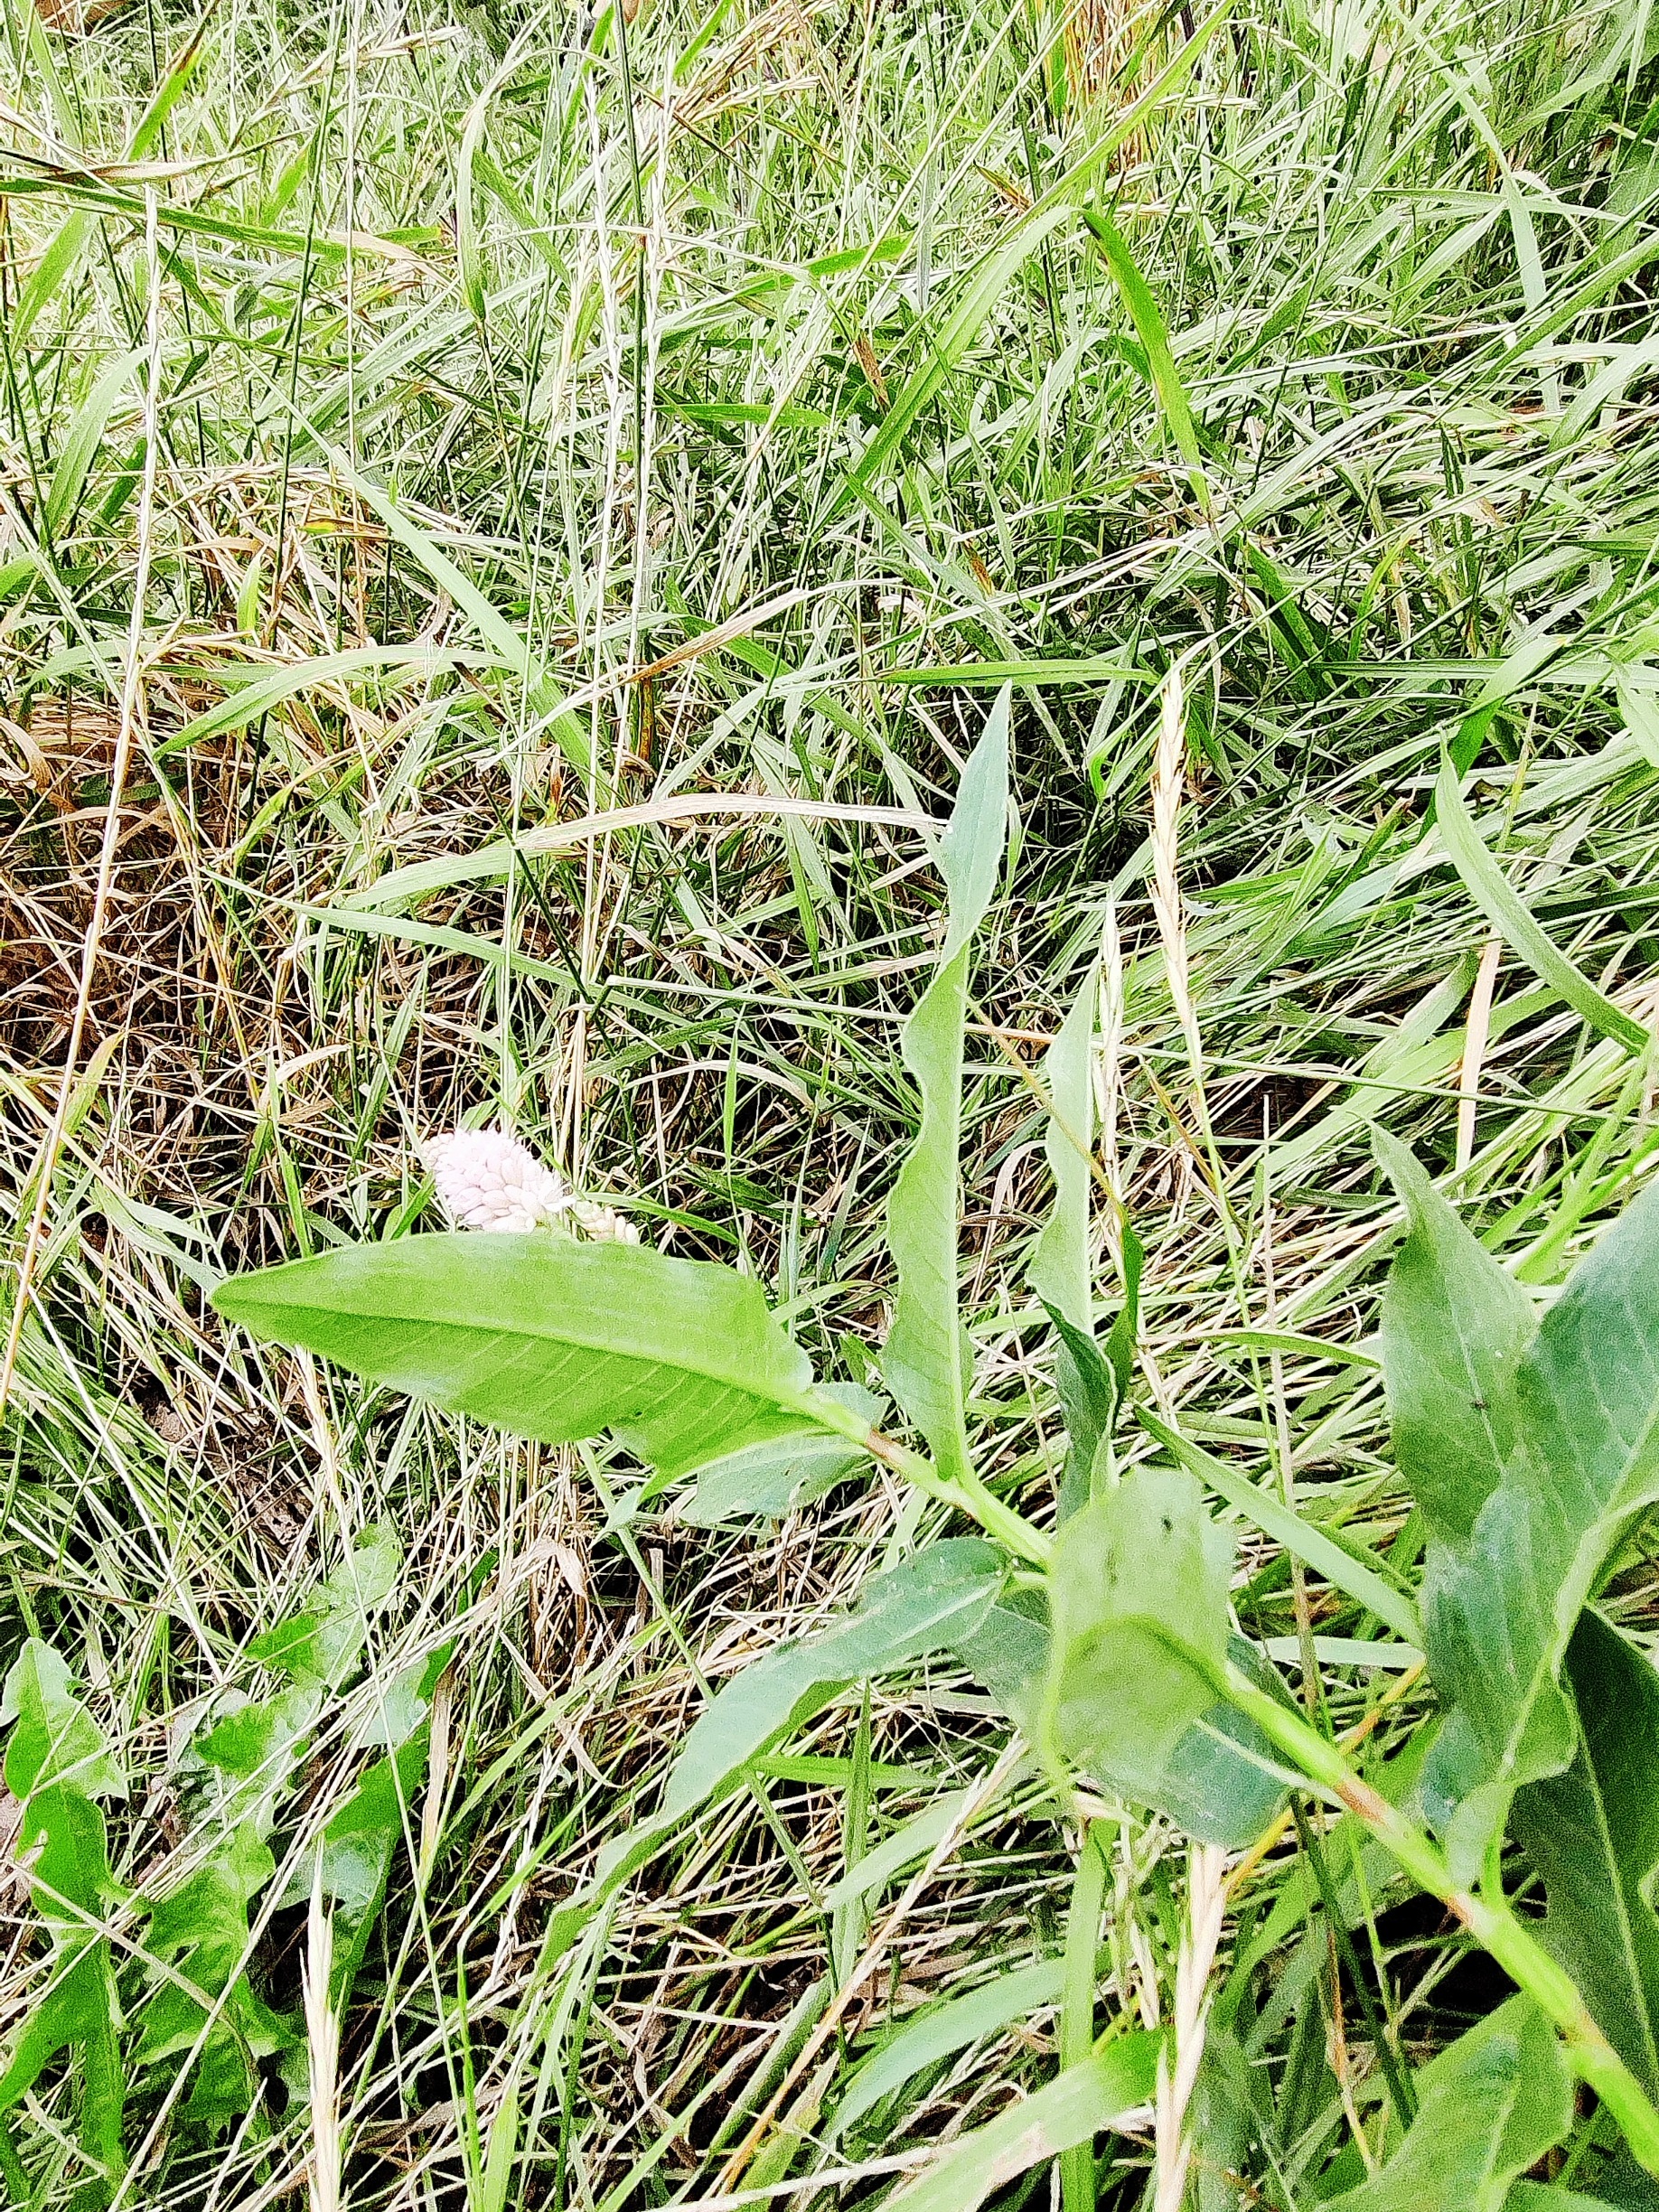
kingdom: Plantae
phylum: Tracheophyta
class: Magnoliopsida
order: Caryophyllales
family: Polygonaceae
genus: Persicaria
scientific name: Persicaria amphibia
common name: Vand-pileurt
